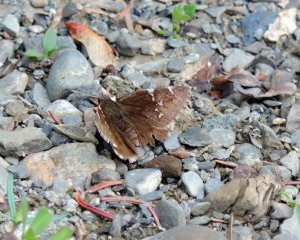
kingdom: Animalia
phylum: Arthropoda
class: Insecta
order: Lepidoptera
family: Hesperiidae
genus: Autochton
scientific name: Autochton
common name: Northern Cloudywing
